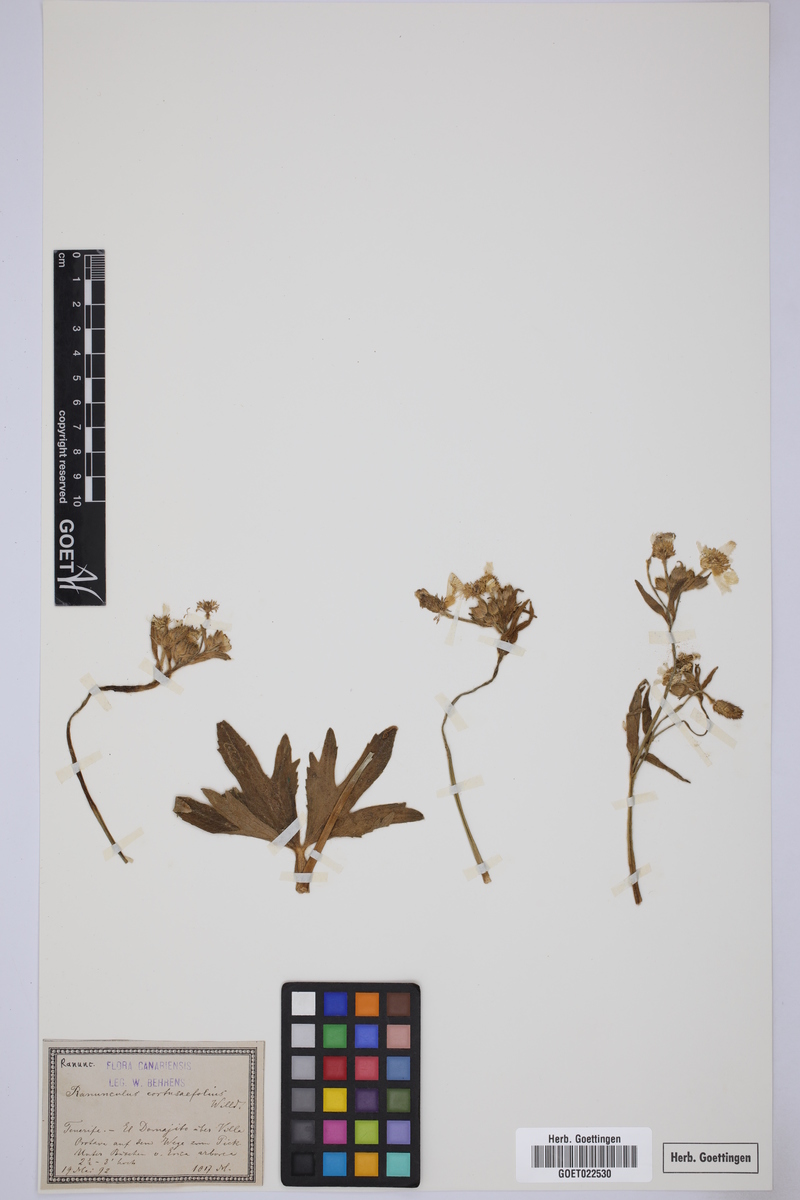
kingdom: Plantae
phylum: Tracheophyta
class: Magnoliopsida
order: Ranunculales
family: Ranunculaceae
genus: Ranunculus
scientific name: Ranunculus cortusifolius
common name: Azores buttercup
